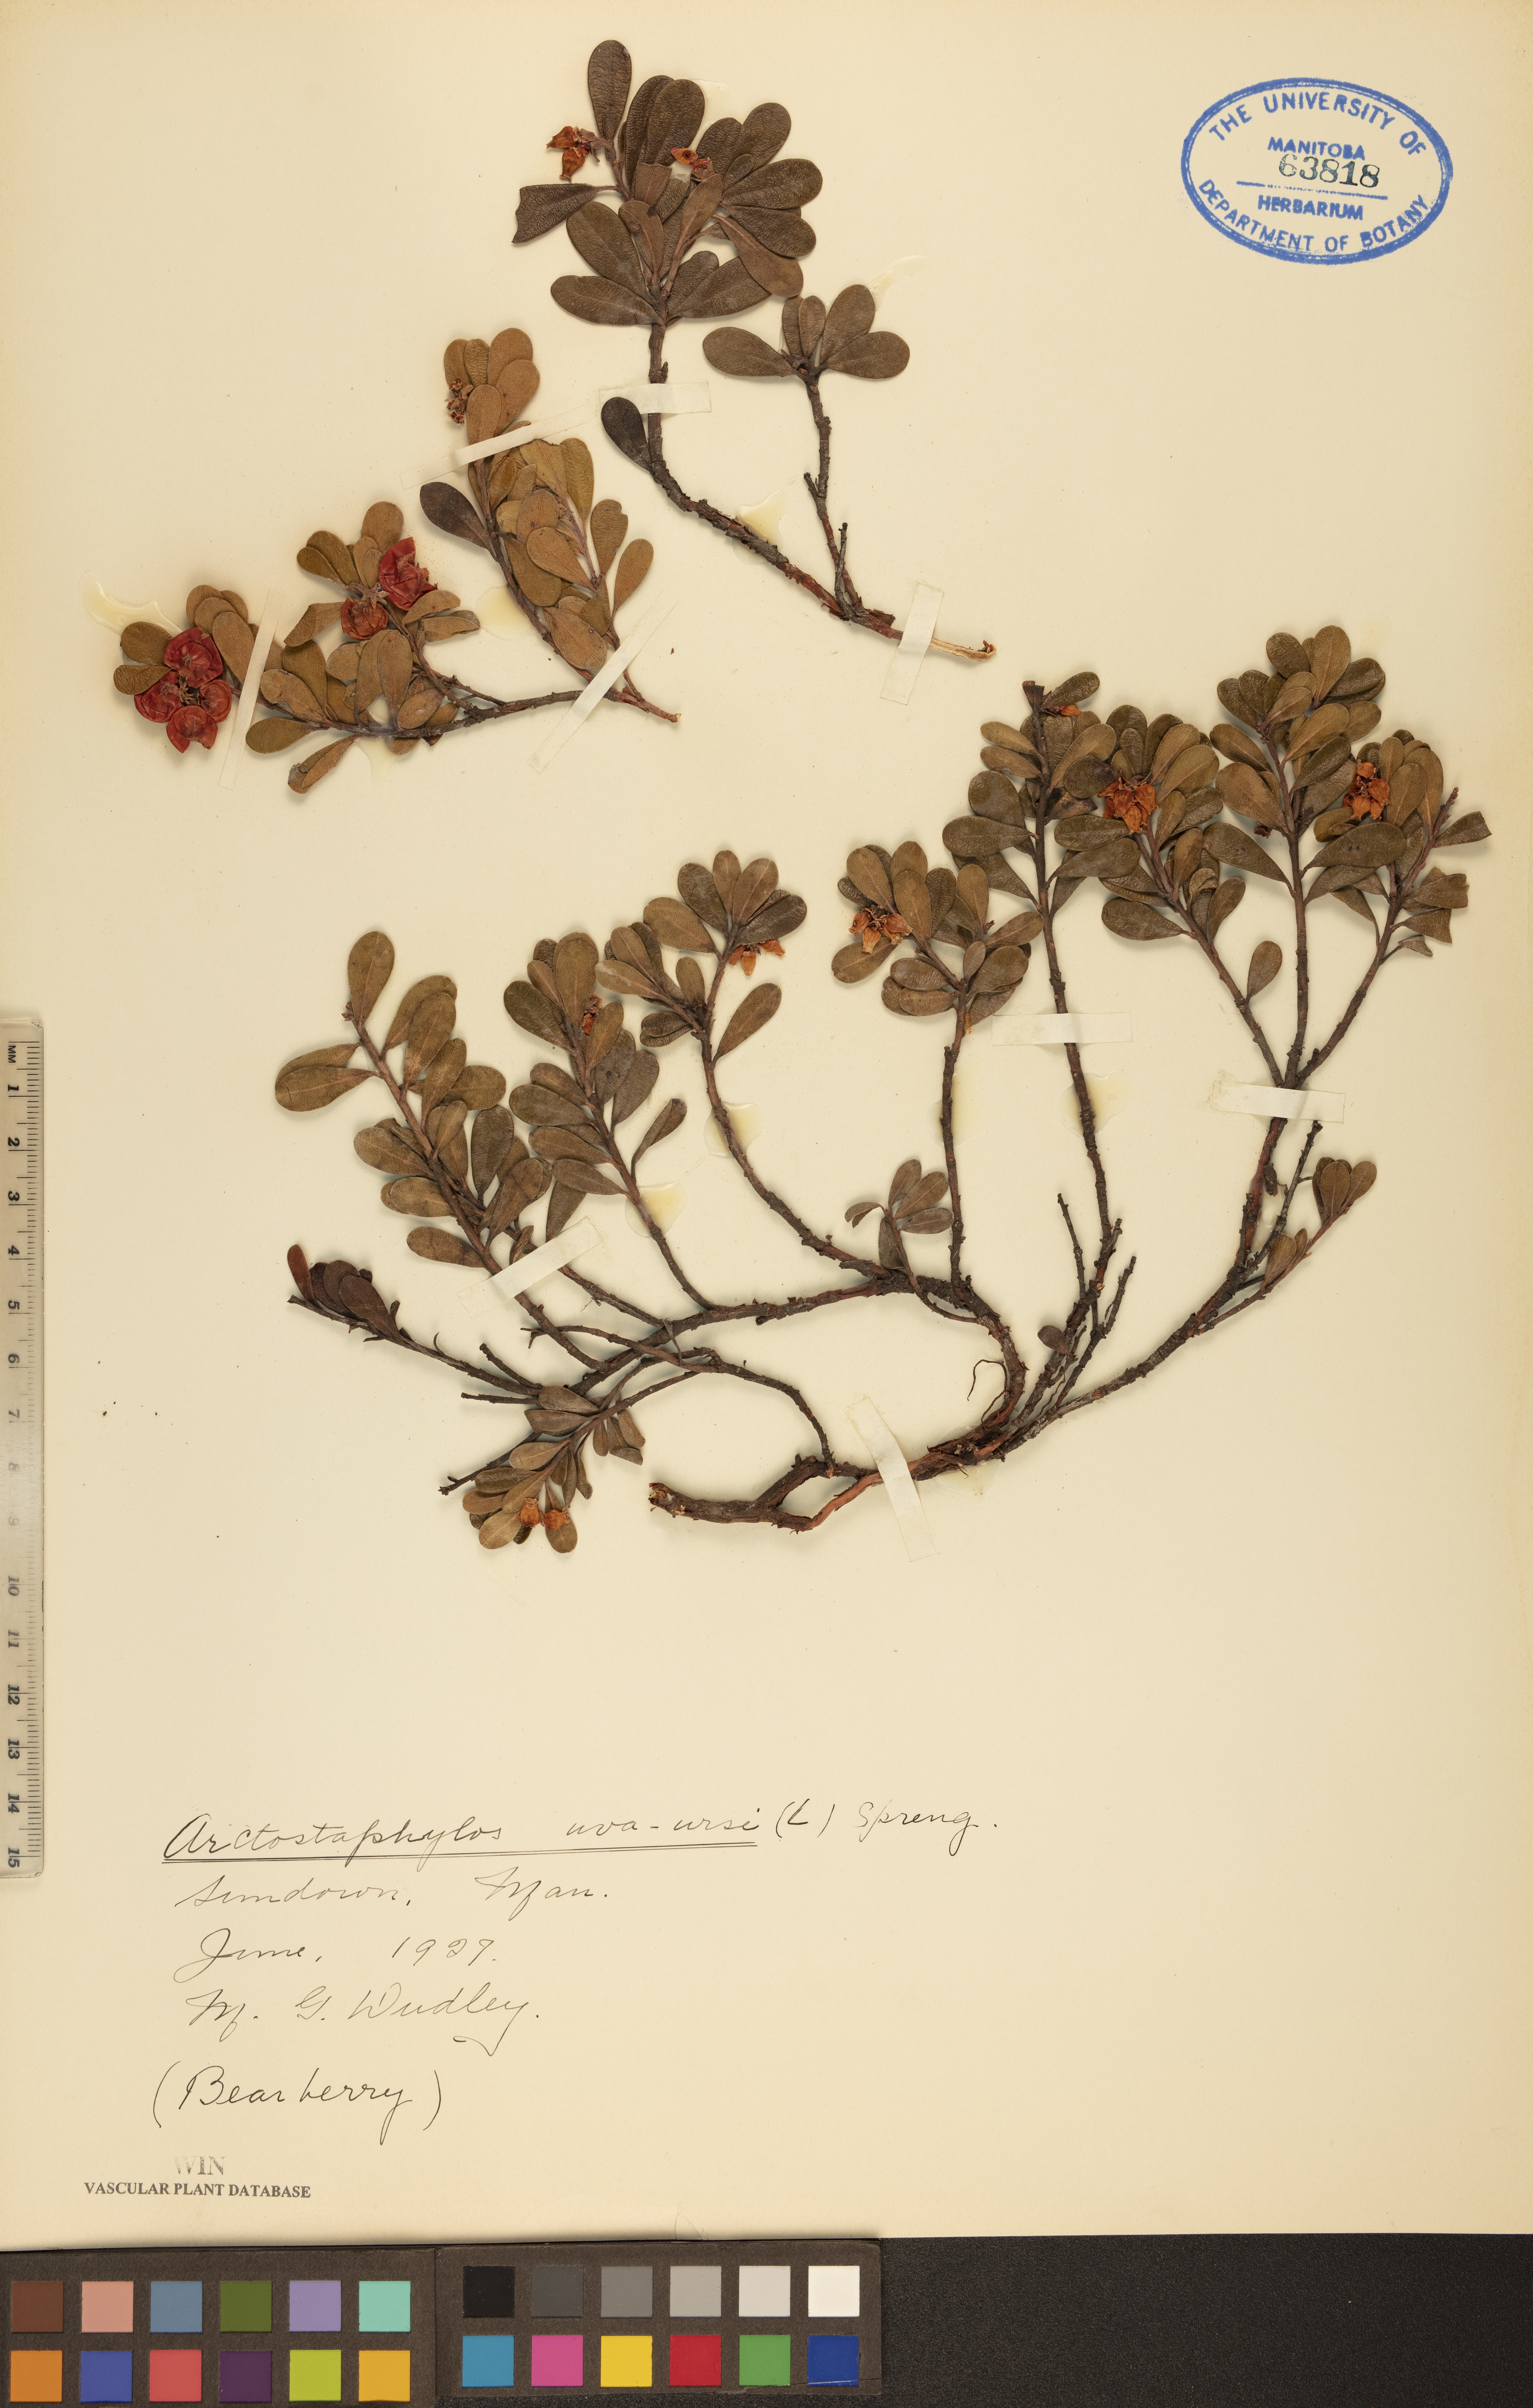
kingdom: Plantae
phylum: Tracheophyta
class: Magnoliopsida
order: Ericales
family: Ericaceae
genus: Arctostaphylos
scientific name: Arctostaphylos uva-ursi
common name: Bearberry
